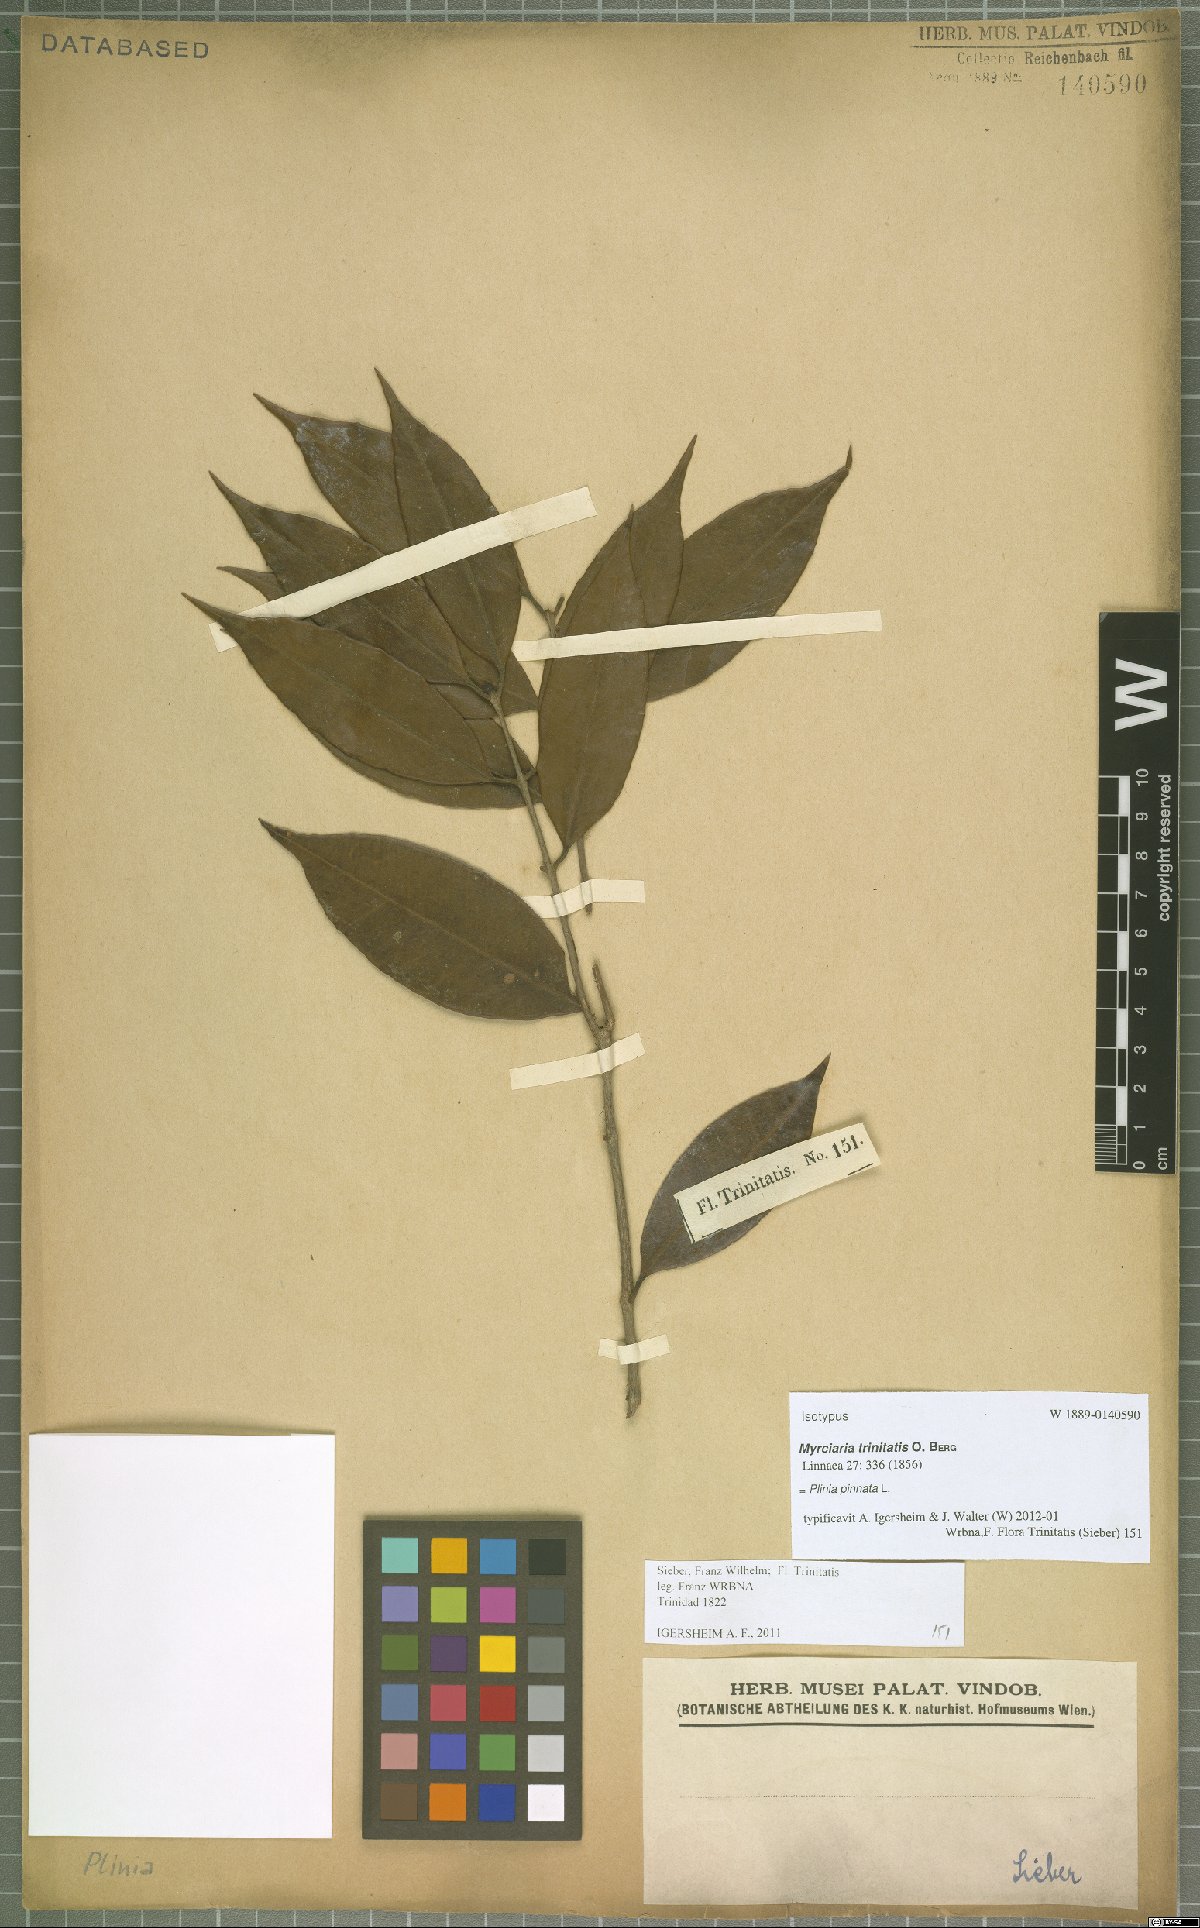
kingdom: Plantae
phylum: Tracheophyta
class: Magnoliopsida
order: Myrtales
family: Myrtaceae
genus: Plinia
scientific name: Plinia pinnata
